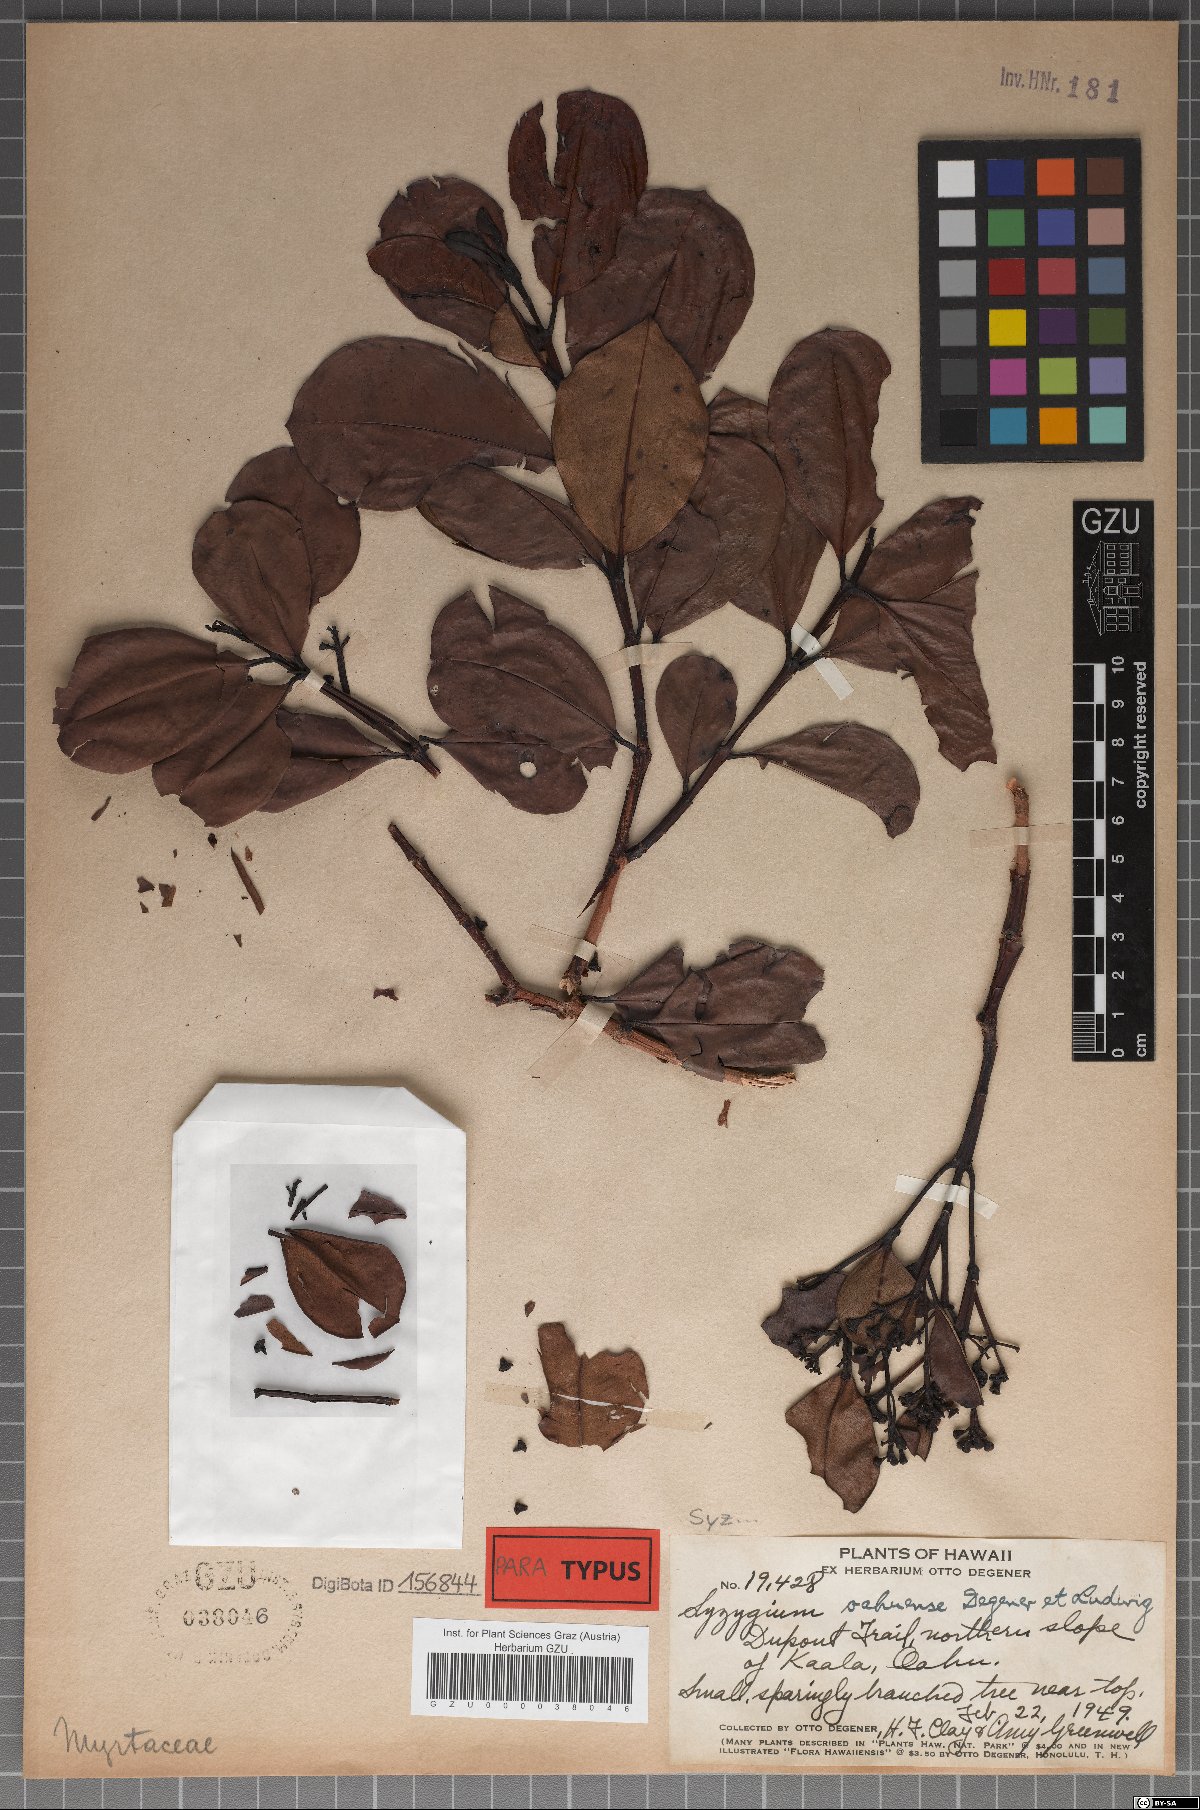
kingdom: Plantae
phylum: Tracheophyta
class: Magnoliopsida
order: Myrtales
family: Myrtaceae
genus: Syzygium
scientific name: Syzygium sandwicense
